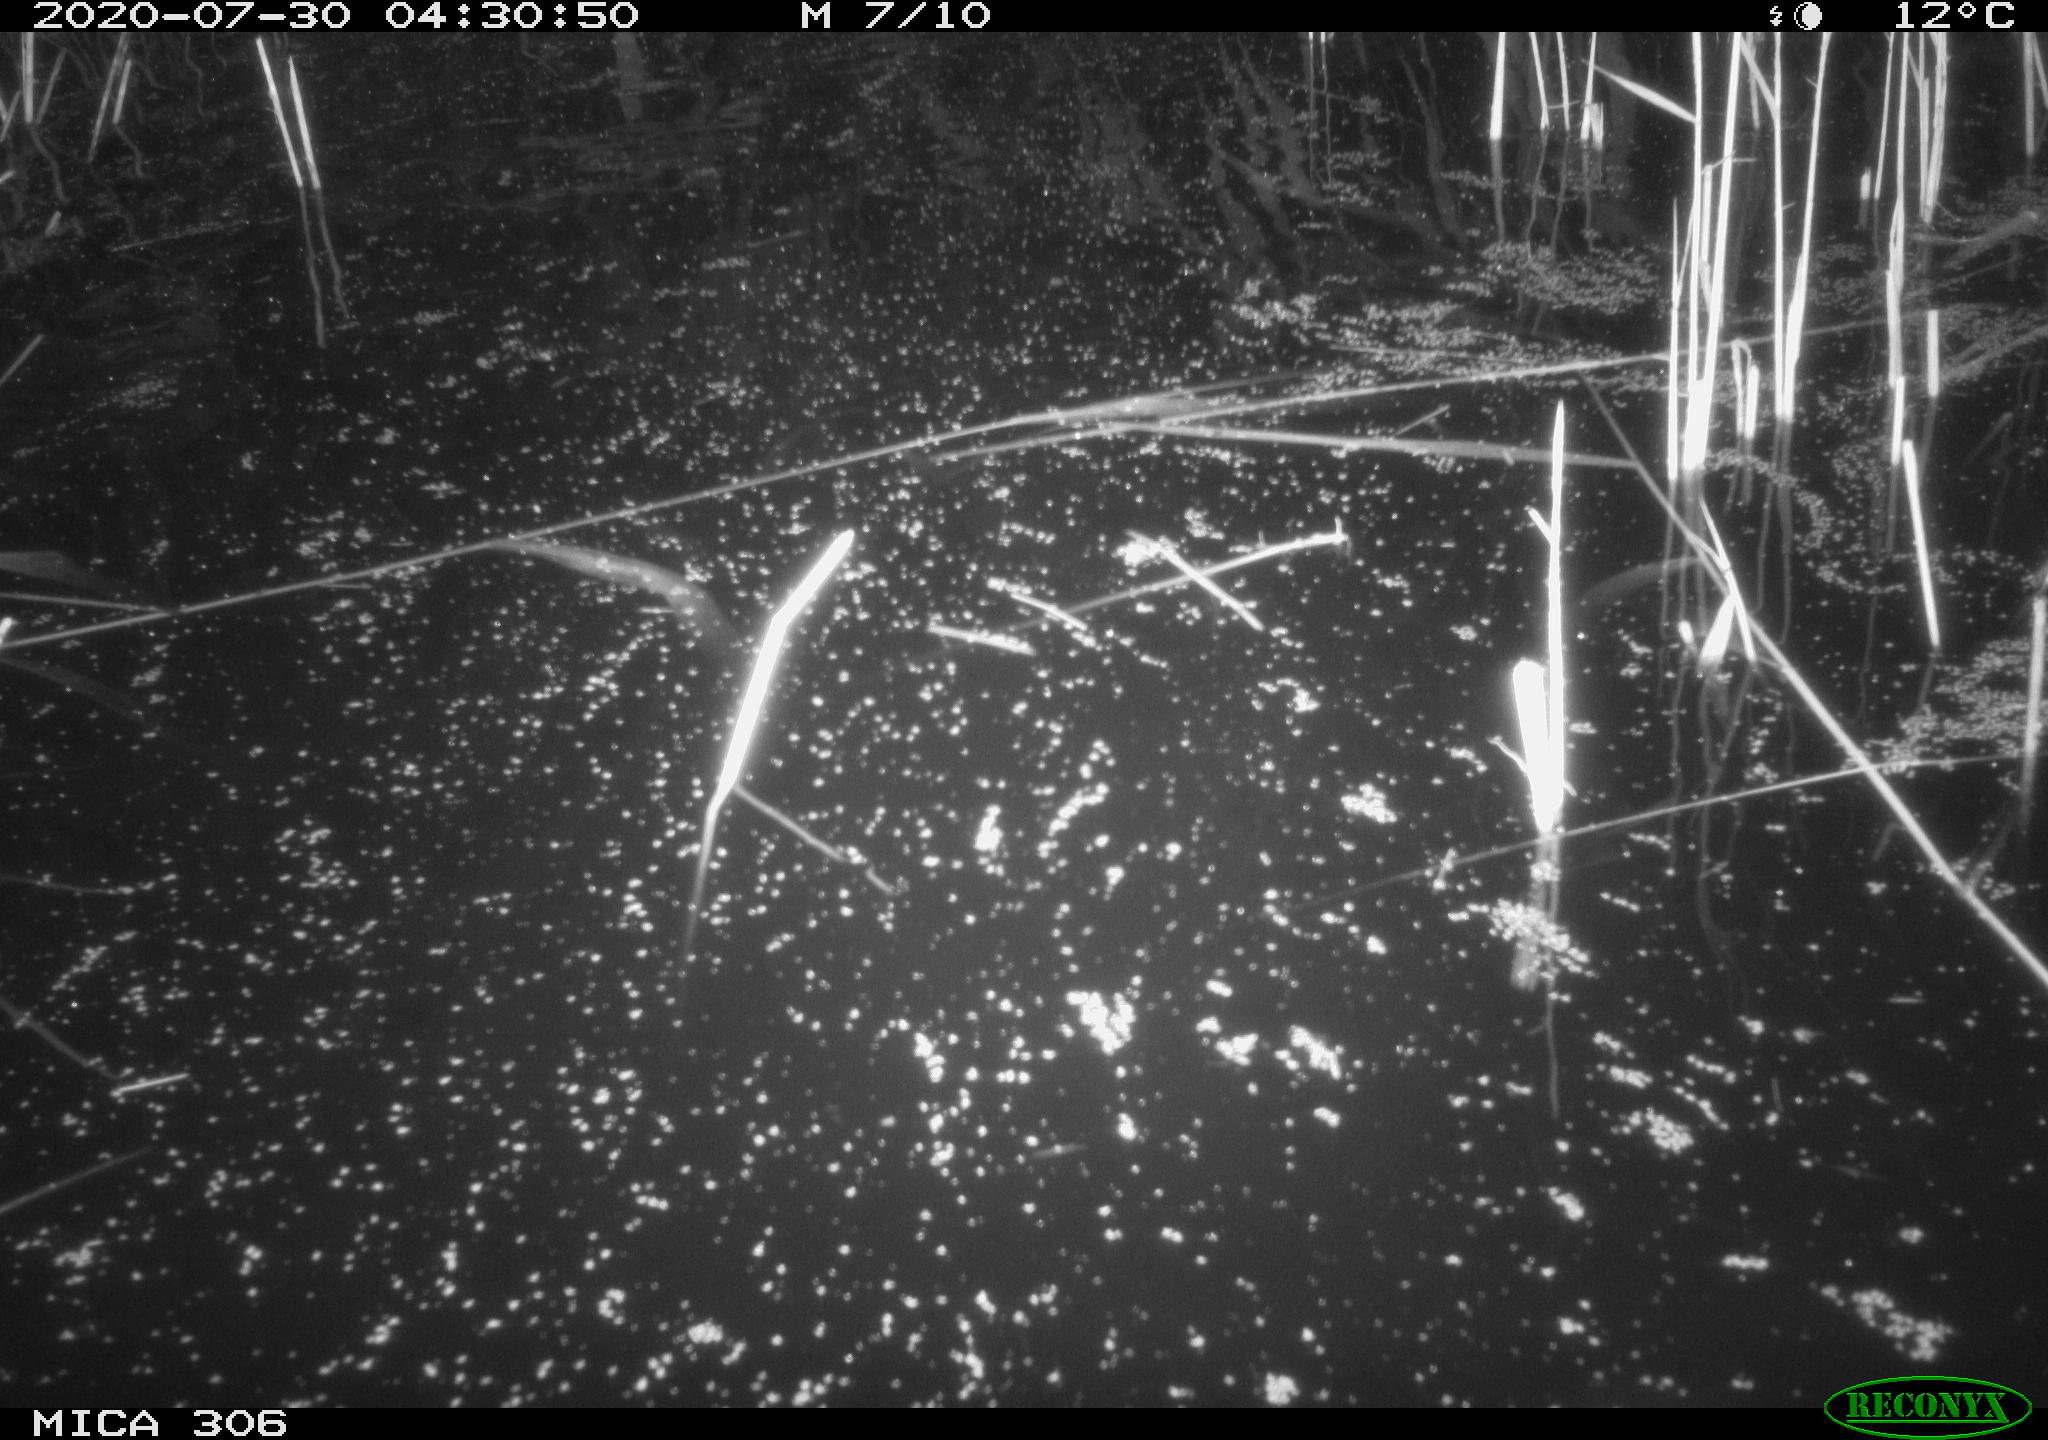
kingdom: Animalia
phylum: Chordata
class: Mammalia
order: Rodentia
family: Cricetidae
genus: Ondatra
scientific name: Ondatra zibethicus
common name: Muskrat
